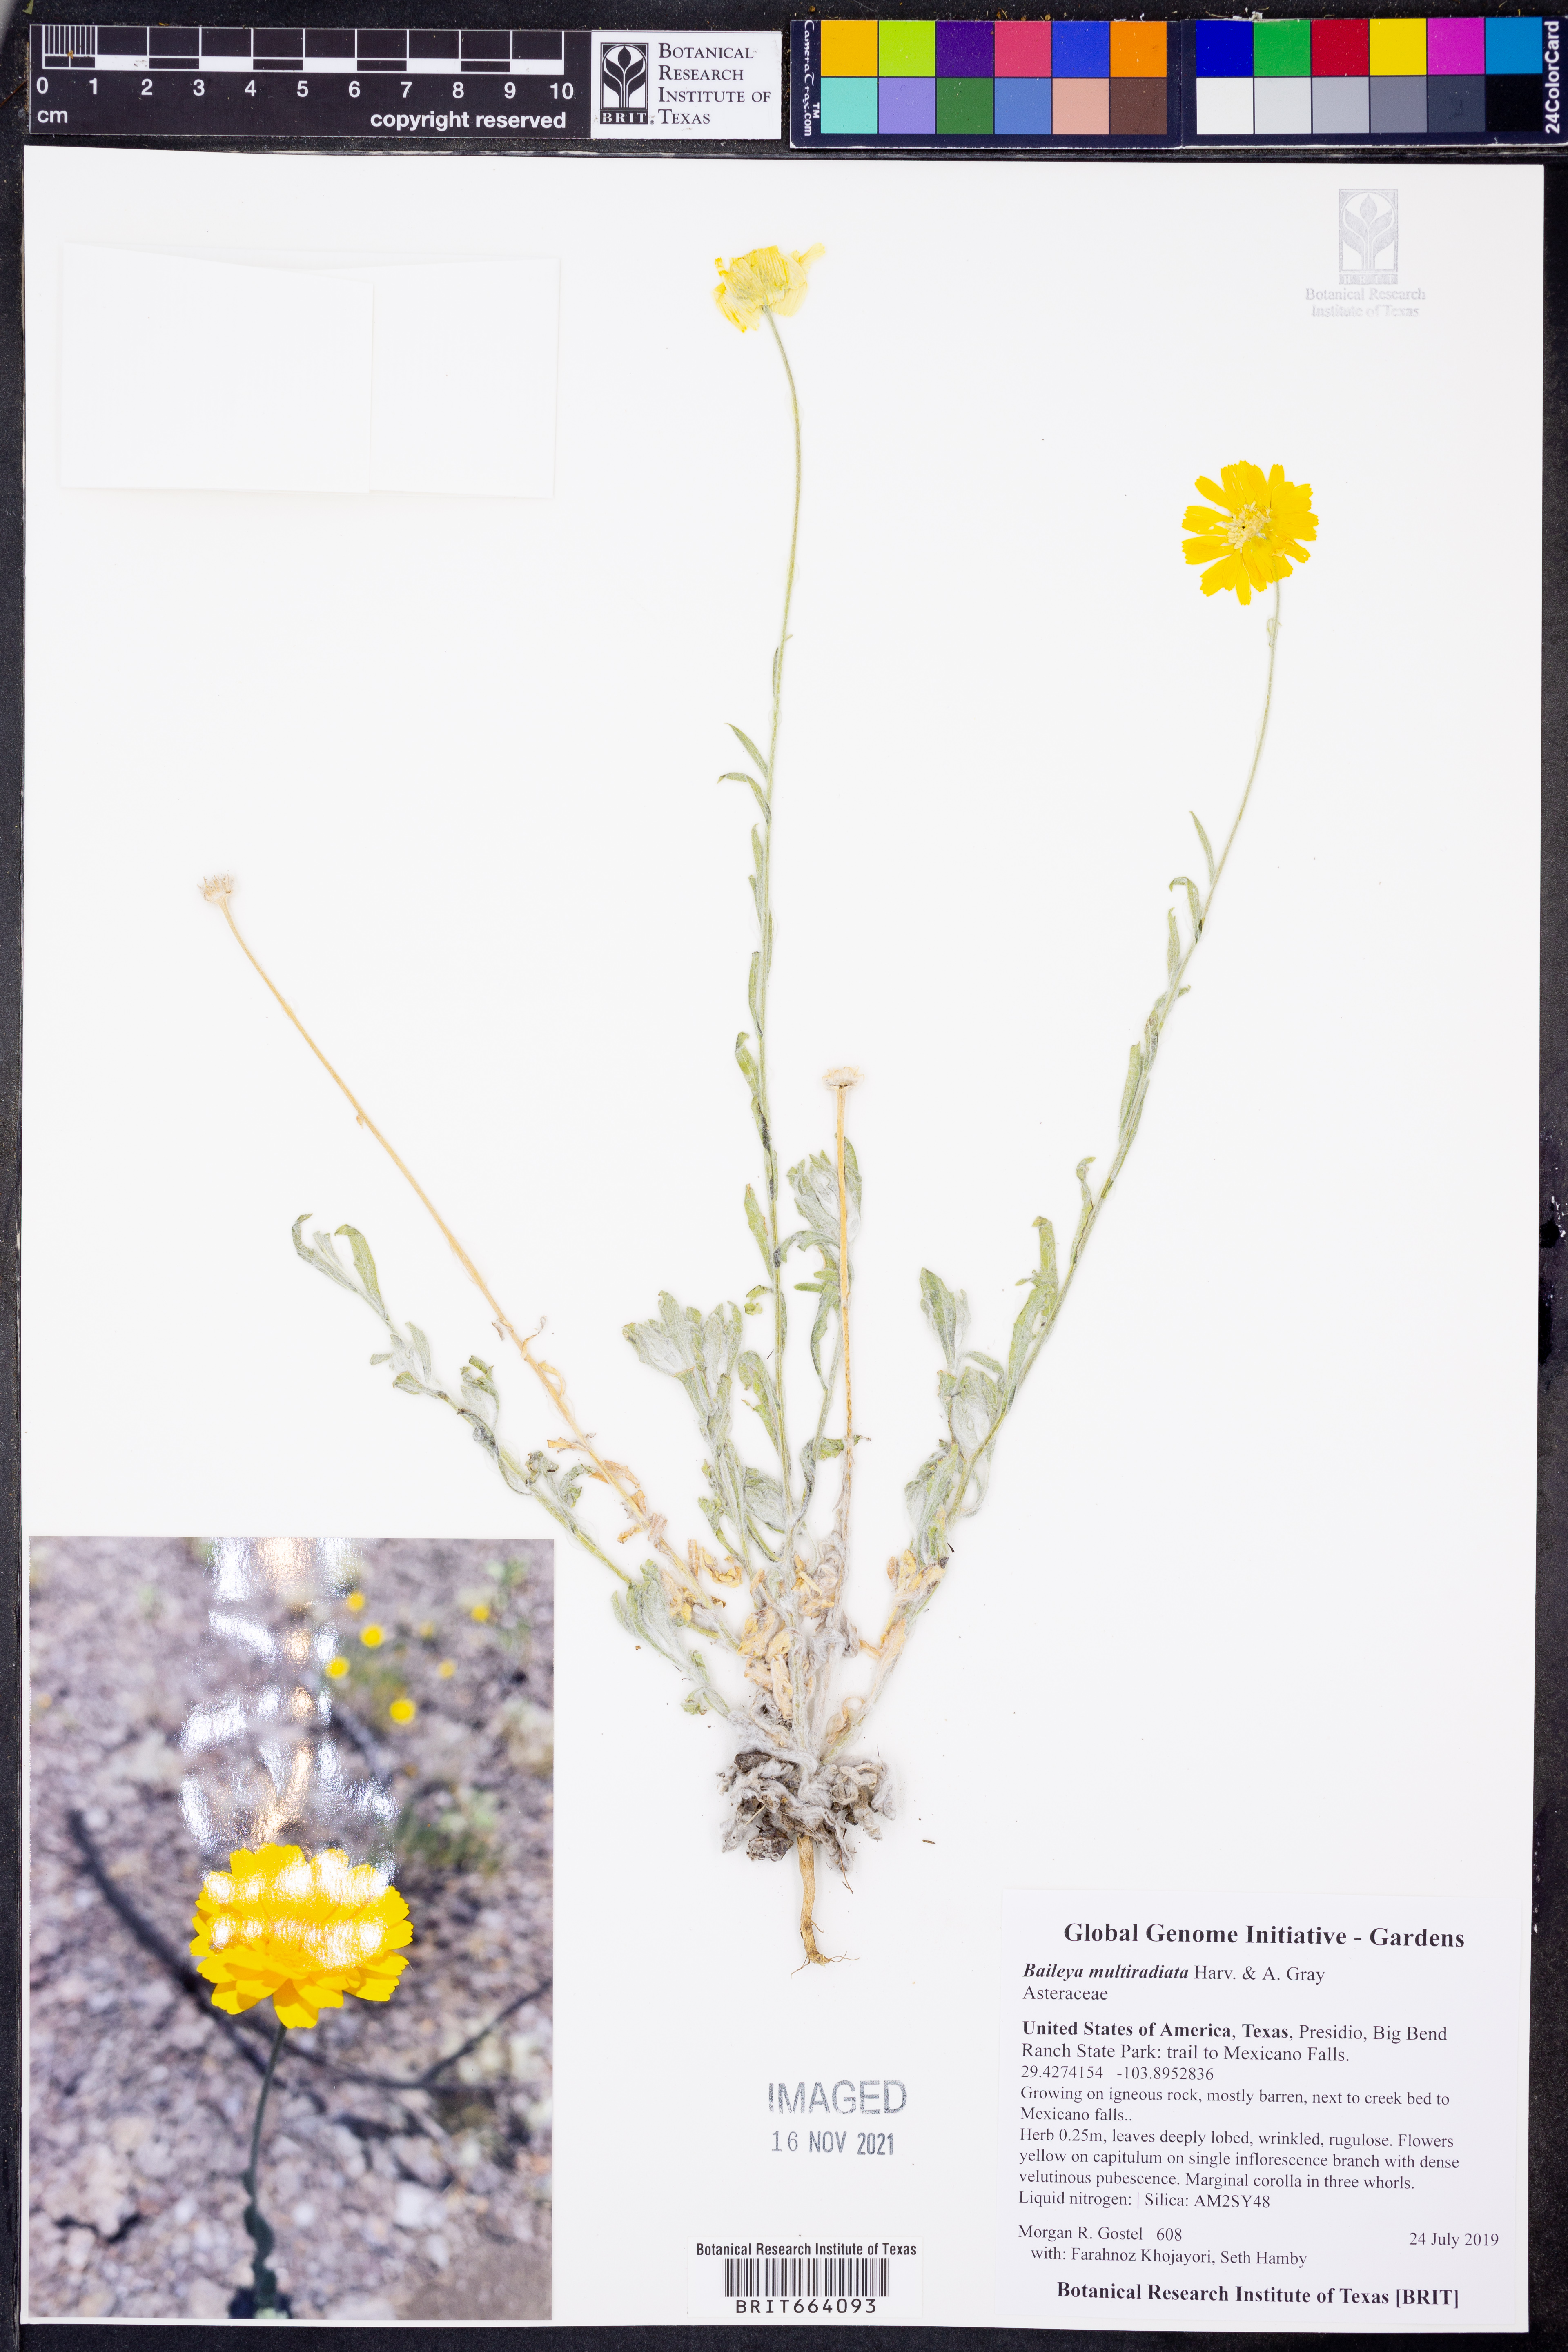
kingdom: Plantae
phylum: Tracheophyta
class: Magnoliopsida
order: Asterales
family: Asteraceae
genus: Baileya
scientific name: Baileya multiradiata
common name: Desert-marigold
